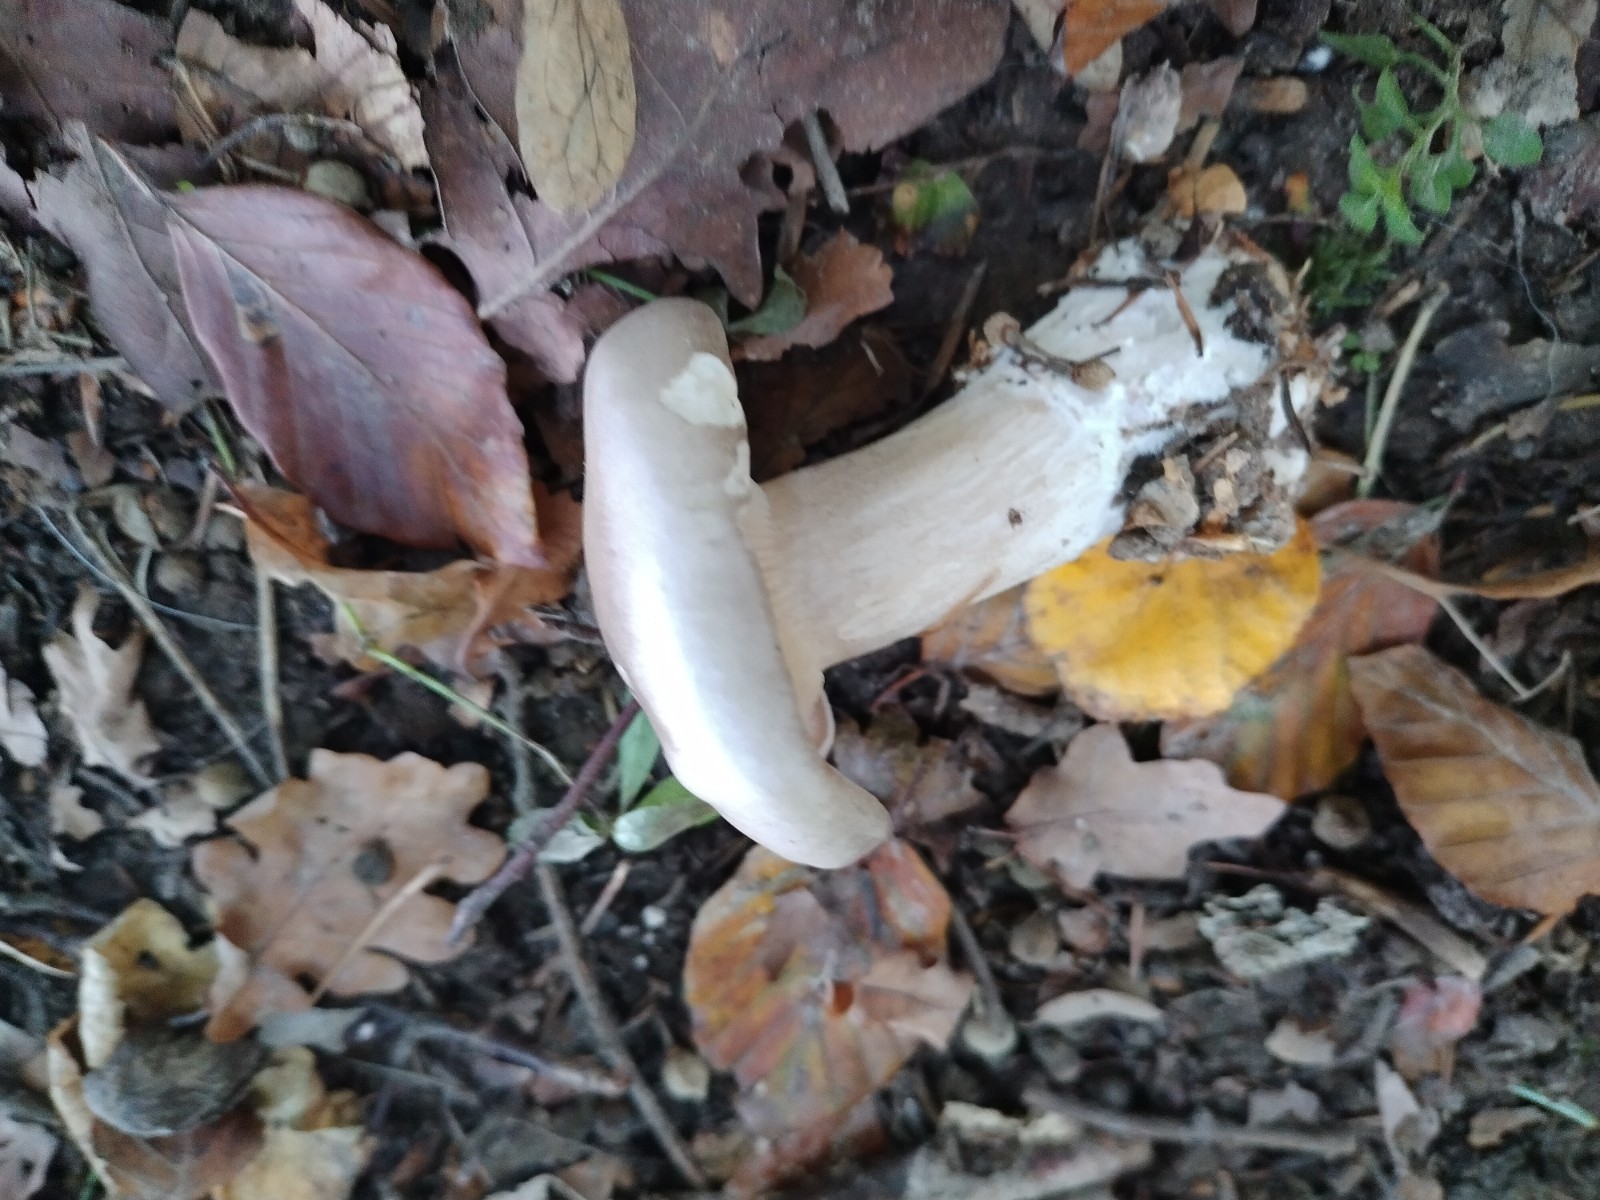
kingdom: Fungi
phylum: Basidiomycota
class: Agaricomycetes
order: Agaricales
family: Tricholomataceae
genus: Clitocybe
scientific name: Clitocybe nebularis
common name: tåge-tragthat
